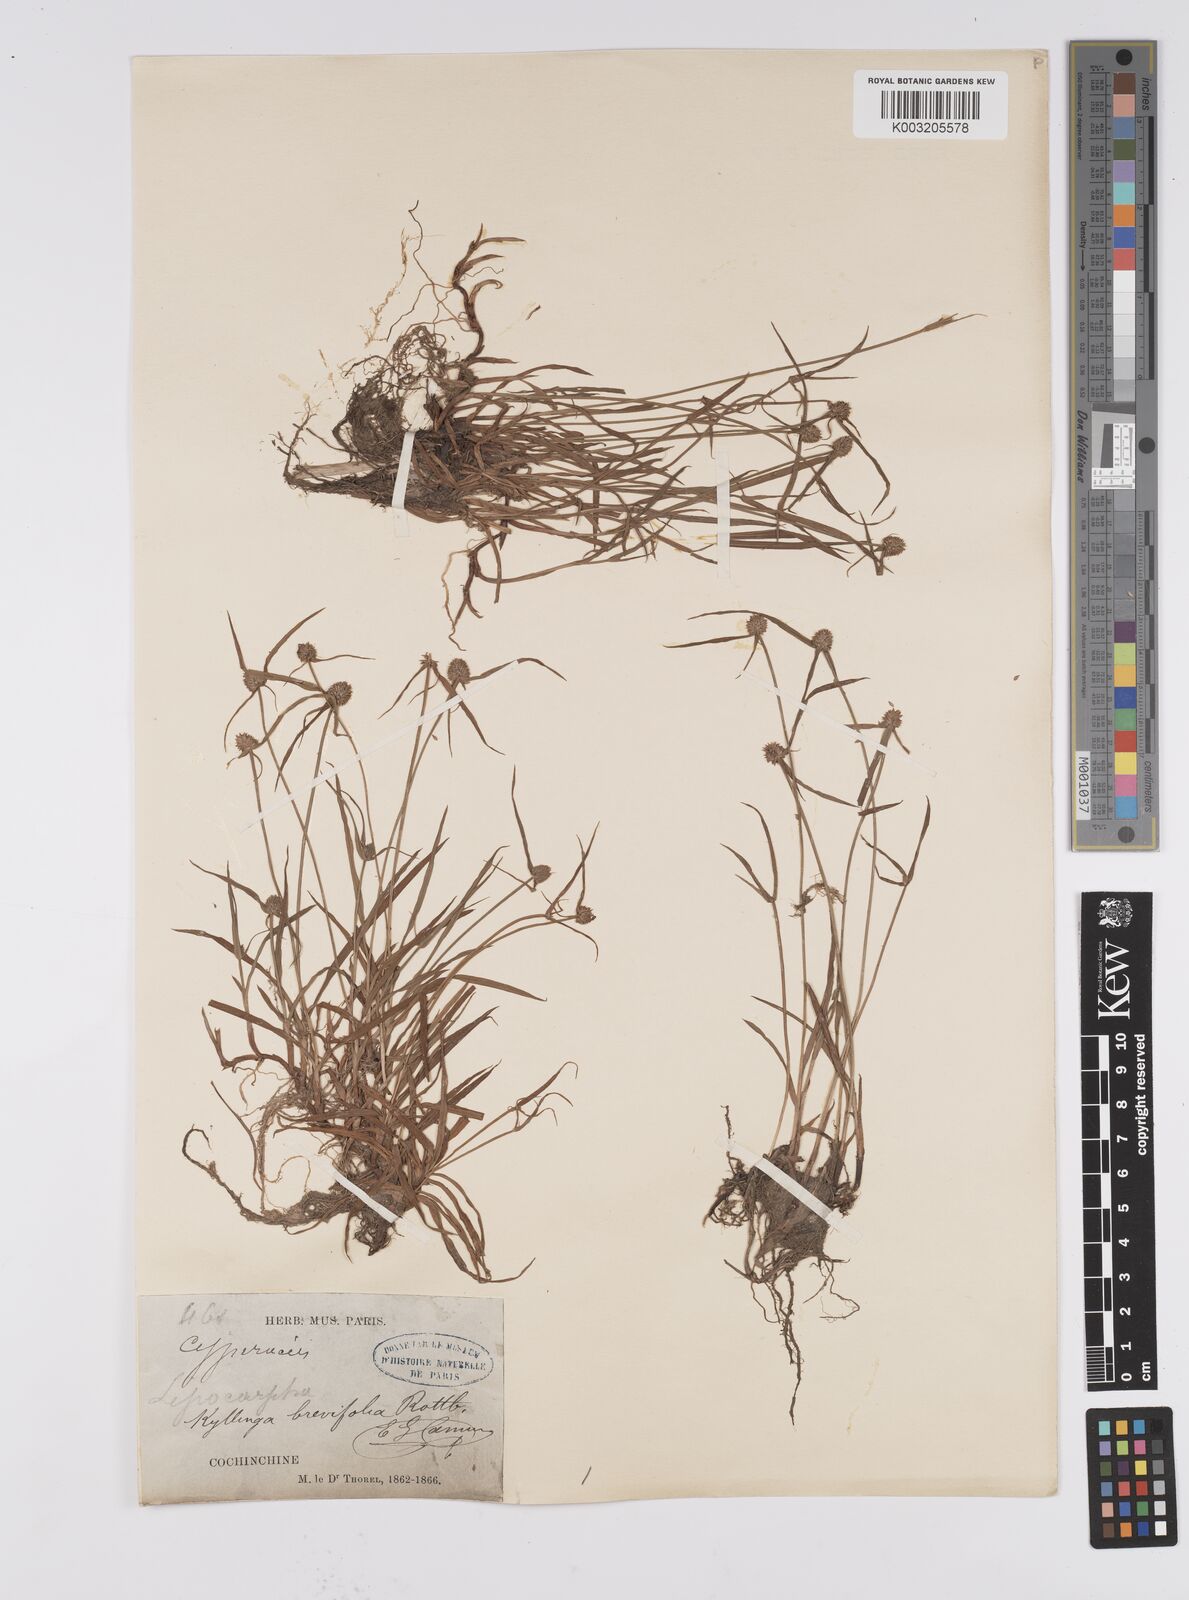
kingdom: Plantae
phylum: Tracheophyta
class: Liliopsida
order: Poales
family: Cyperaceae
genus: Cyperus
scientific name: Cyperus brevifolius
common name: Globe kyllinga
